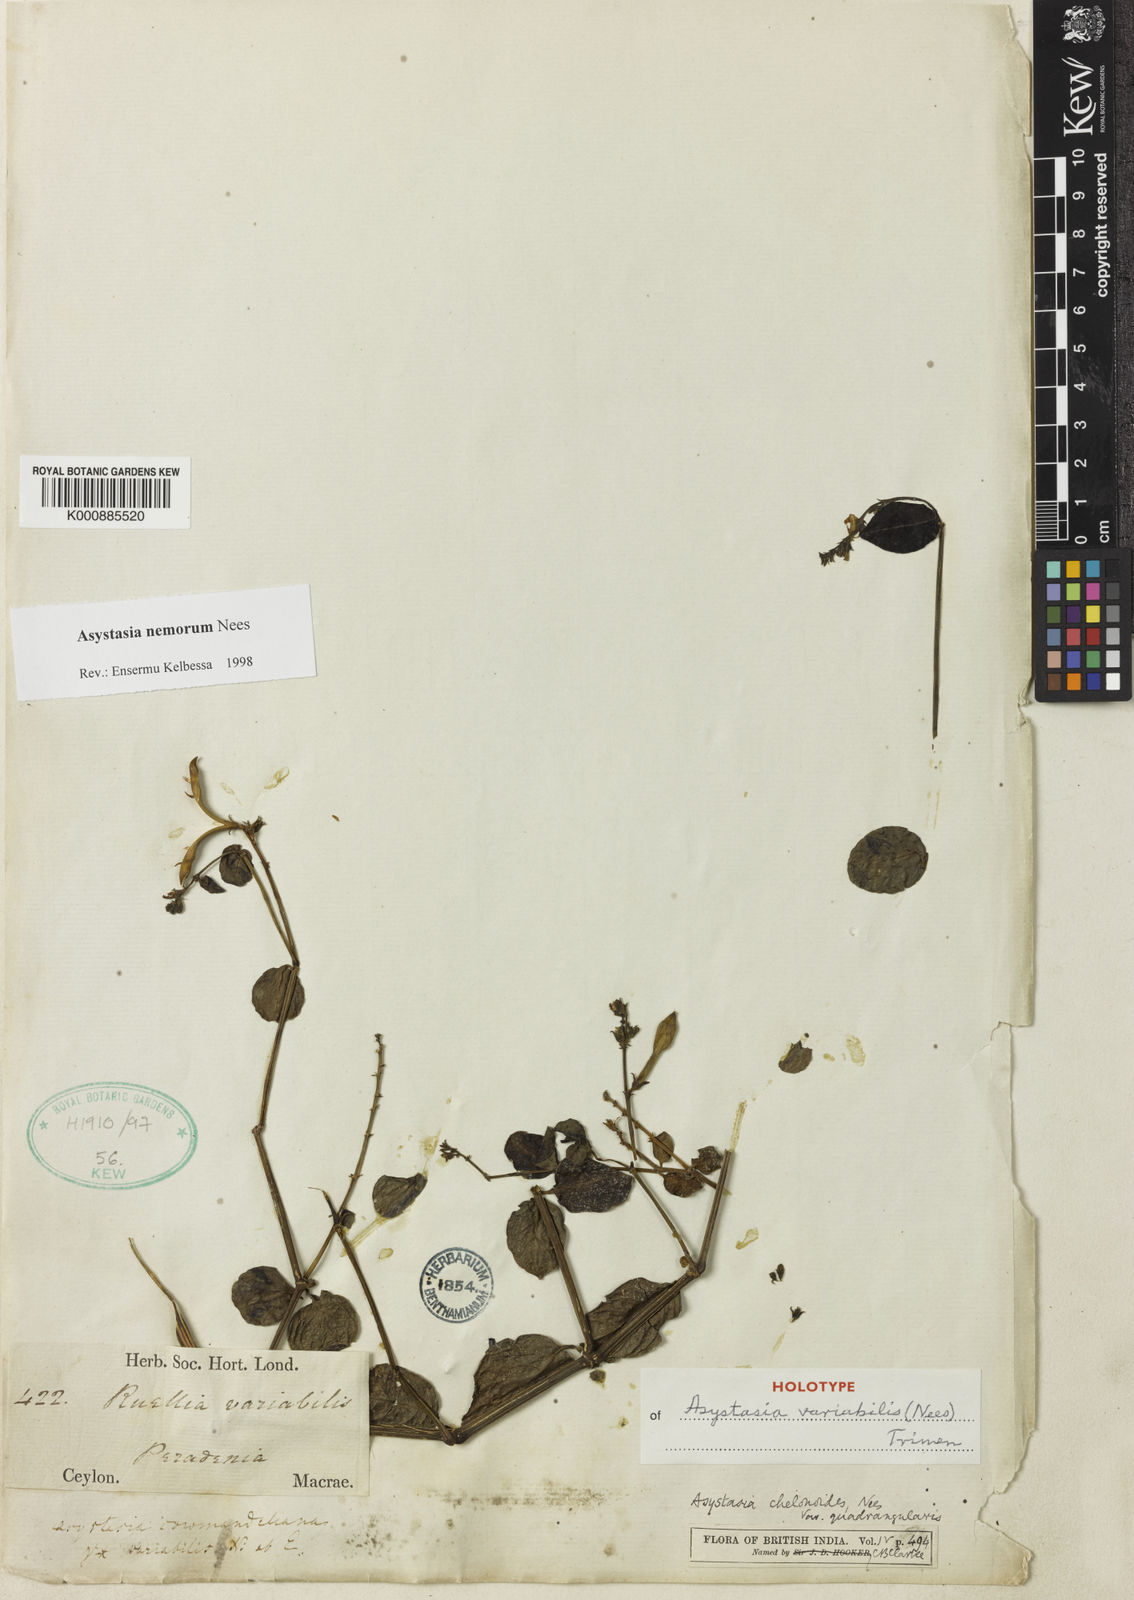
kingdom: Plantae
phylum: Tracheophyta
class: Magnoliopsida
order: Lamiales
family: Acanthaceae
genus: Asystasia
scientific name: Asystasia pusilla
